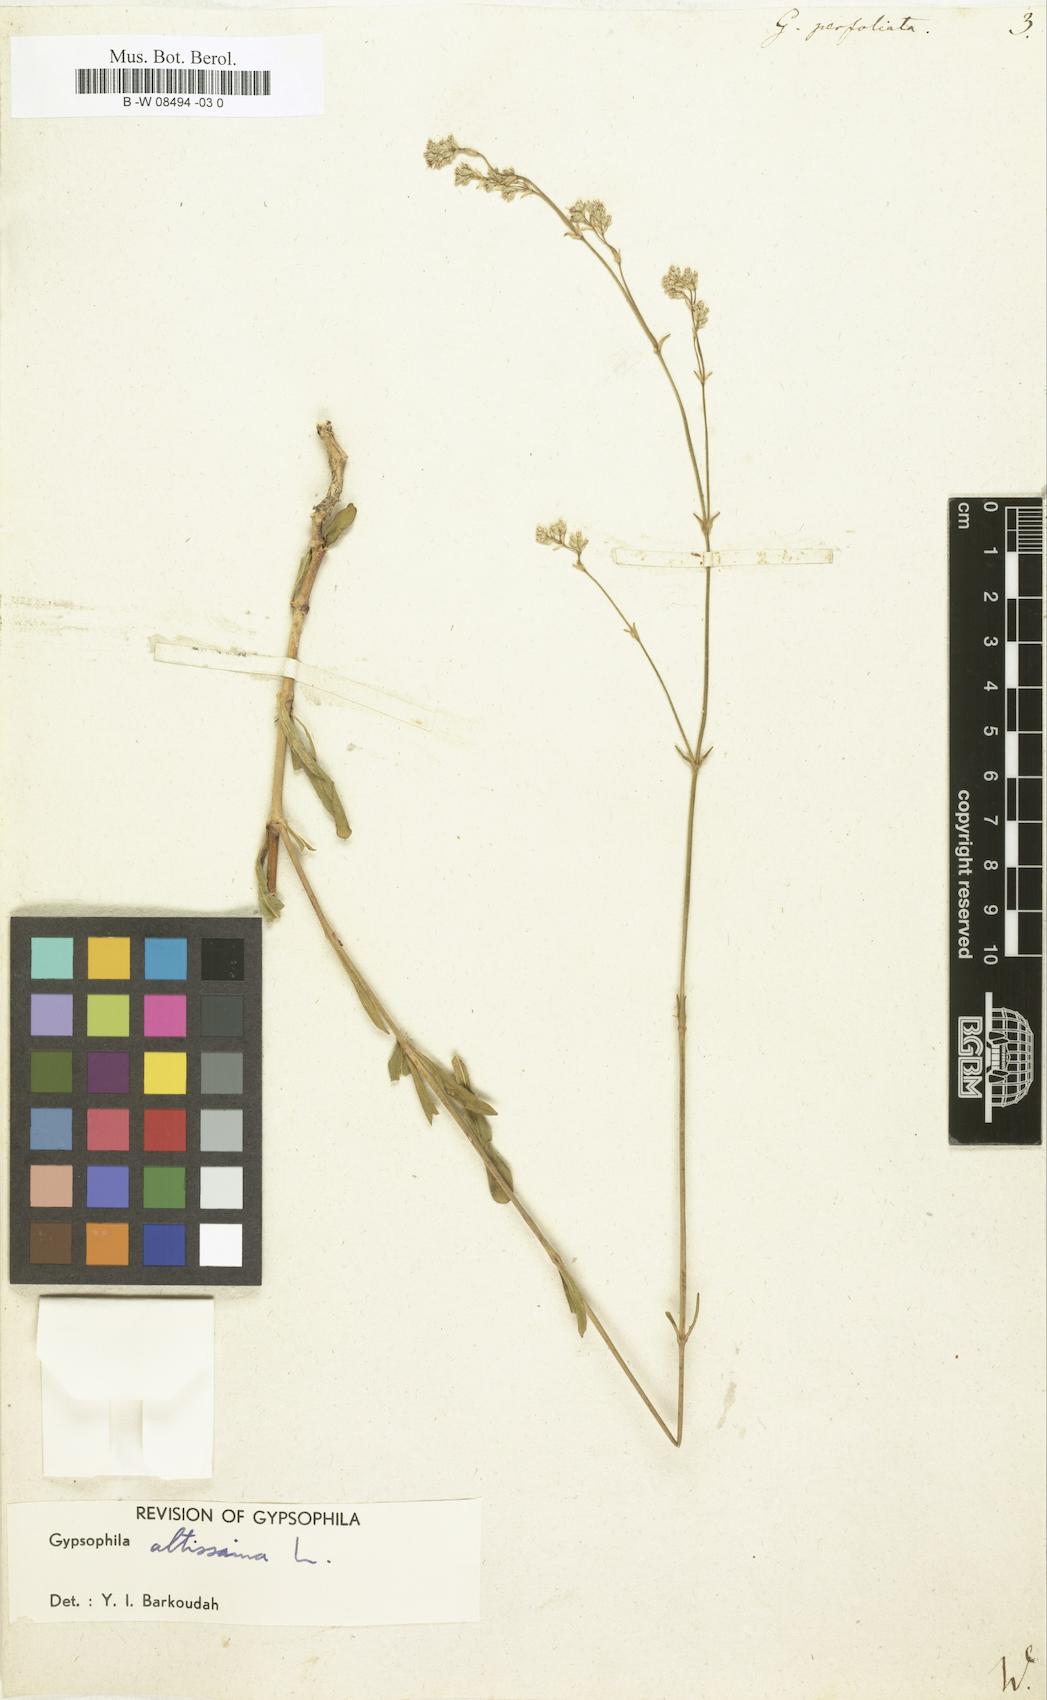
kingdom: Plantae
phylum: Tracheophyta
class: Magnoliopsida
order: Caryophyllales
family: Caryophyllaceae
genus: Gypsophila
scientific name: Gypsophila perfoliata
